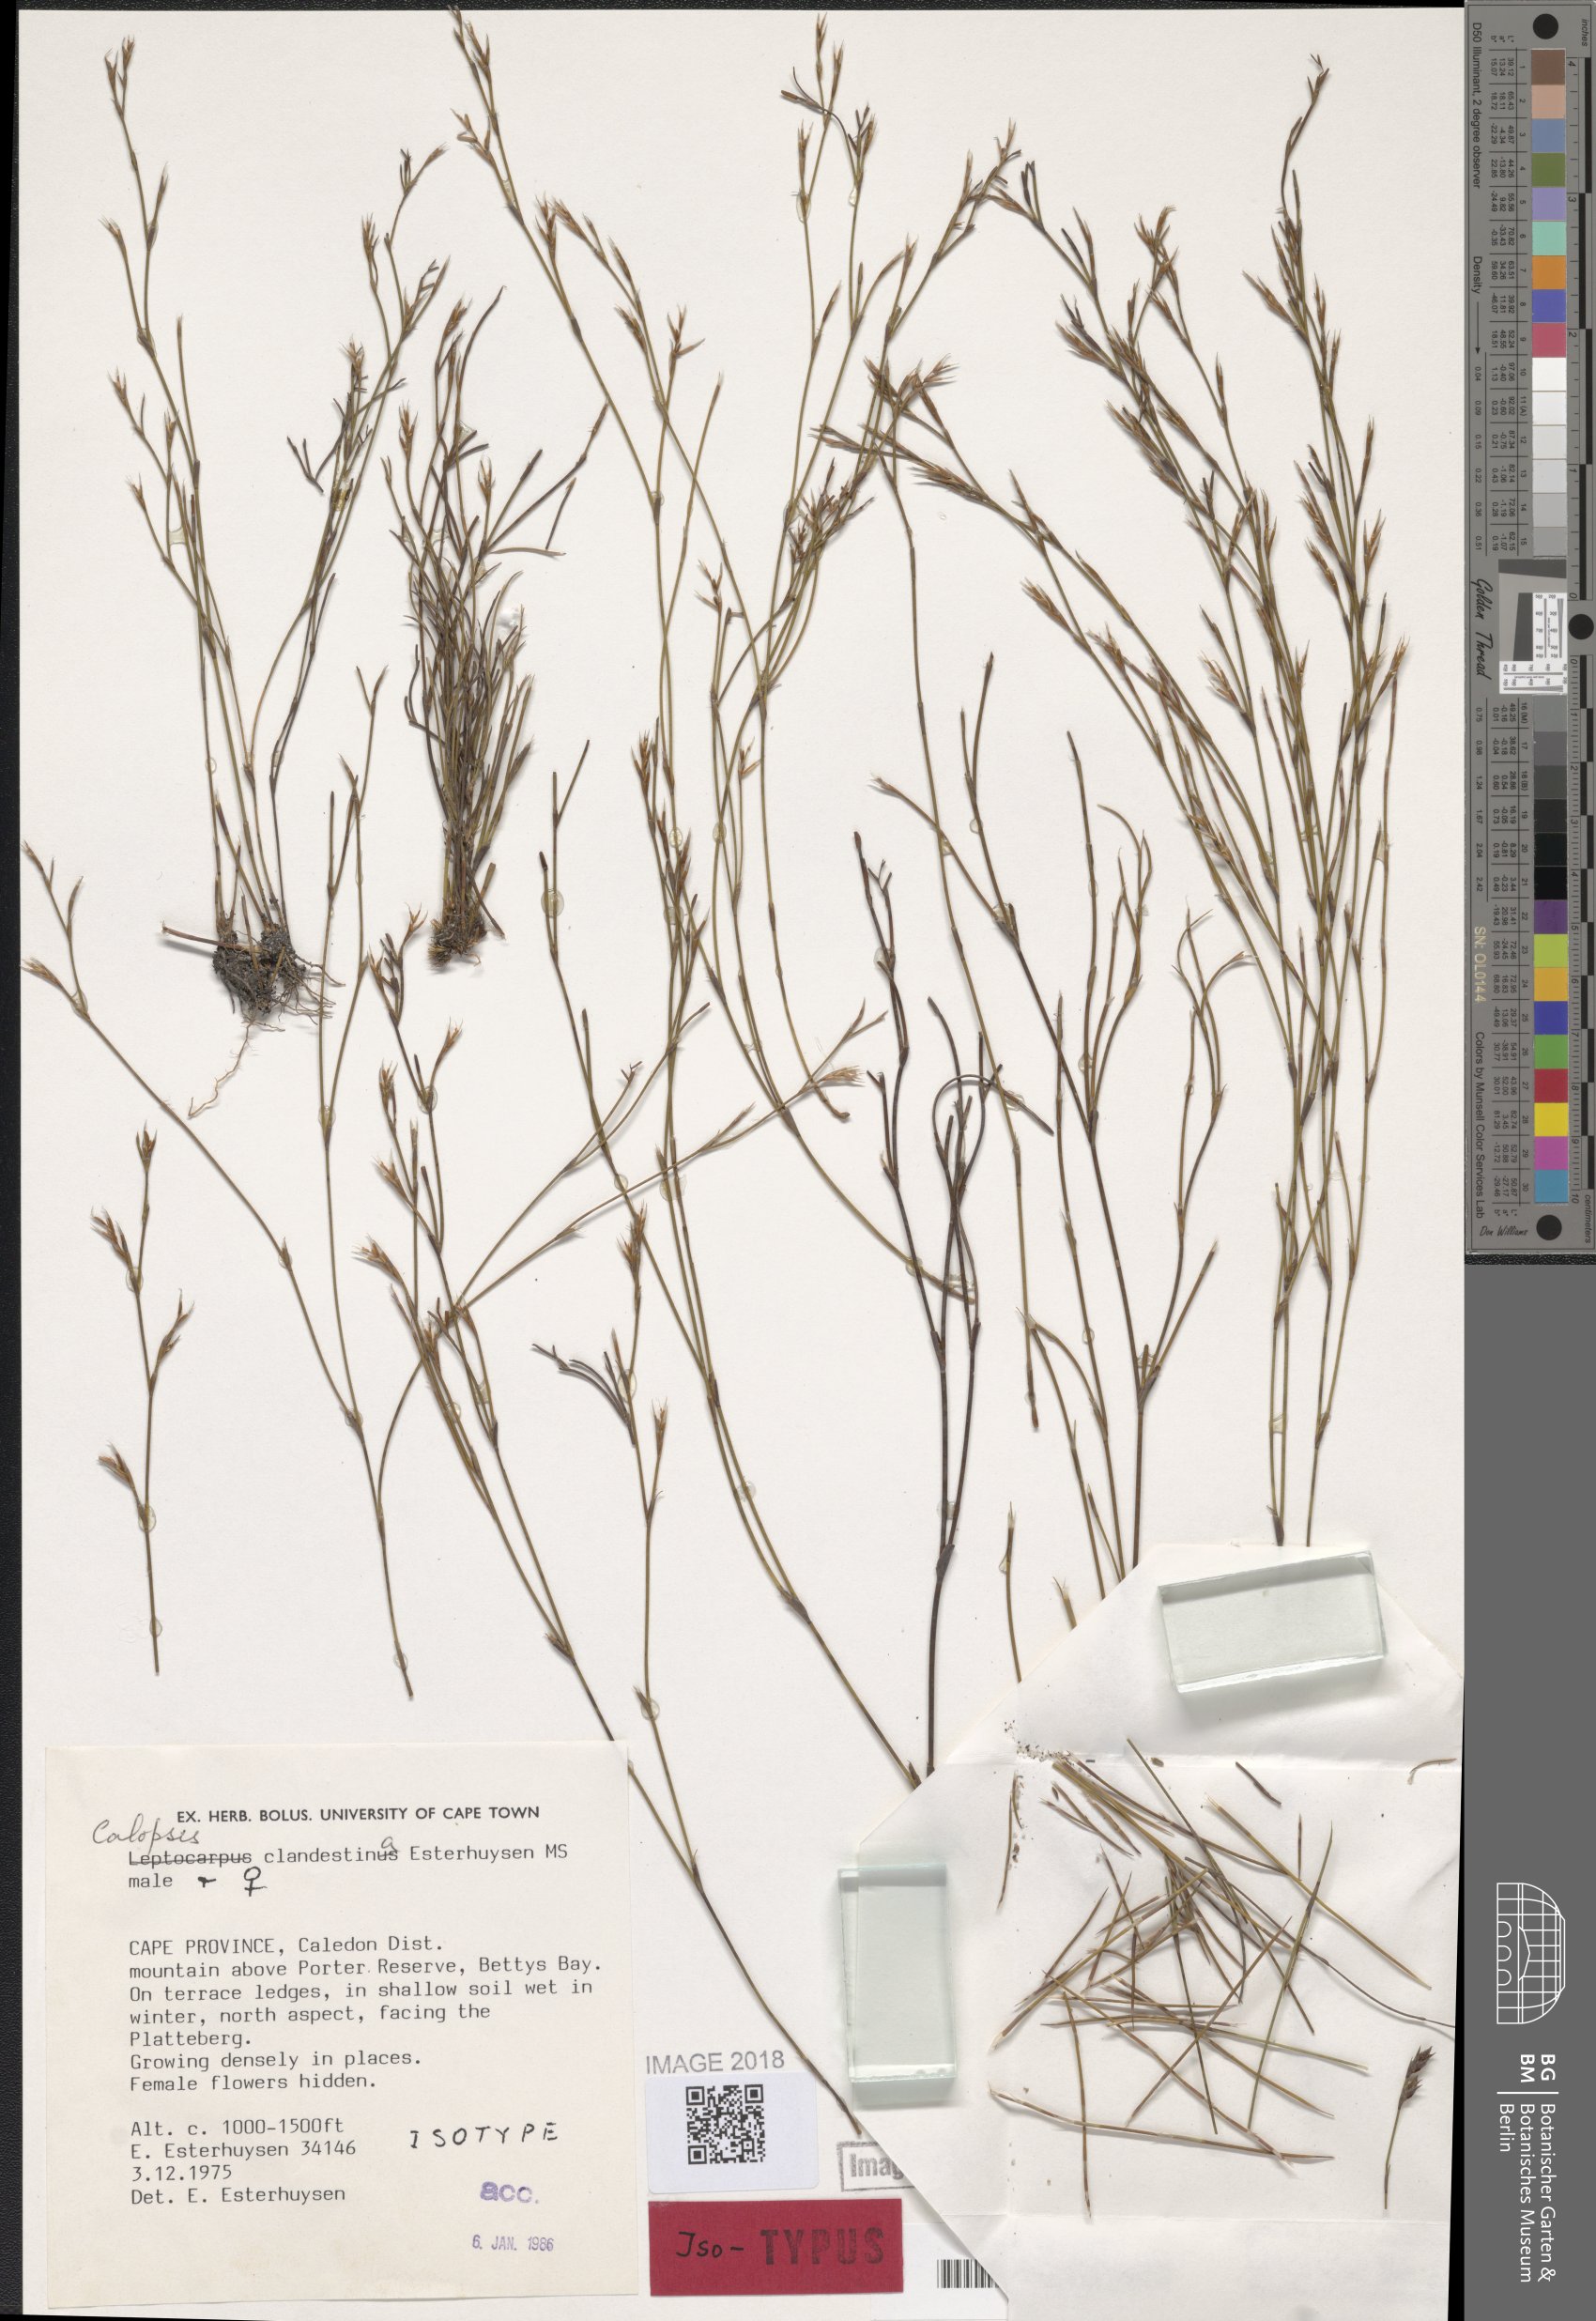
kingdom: Plantae
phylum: Tracheophyta
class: Liliopsida
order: Poales
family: Restionaceae
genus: Restio
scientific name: Restio clandestinus
